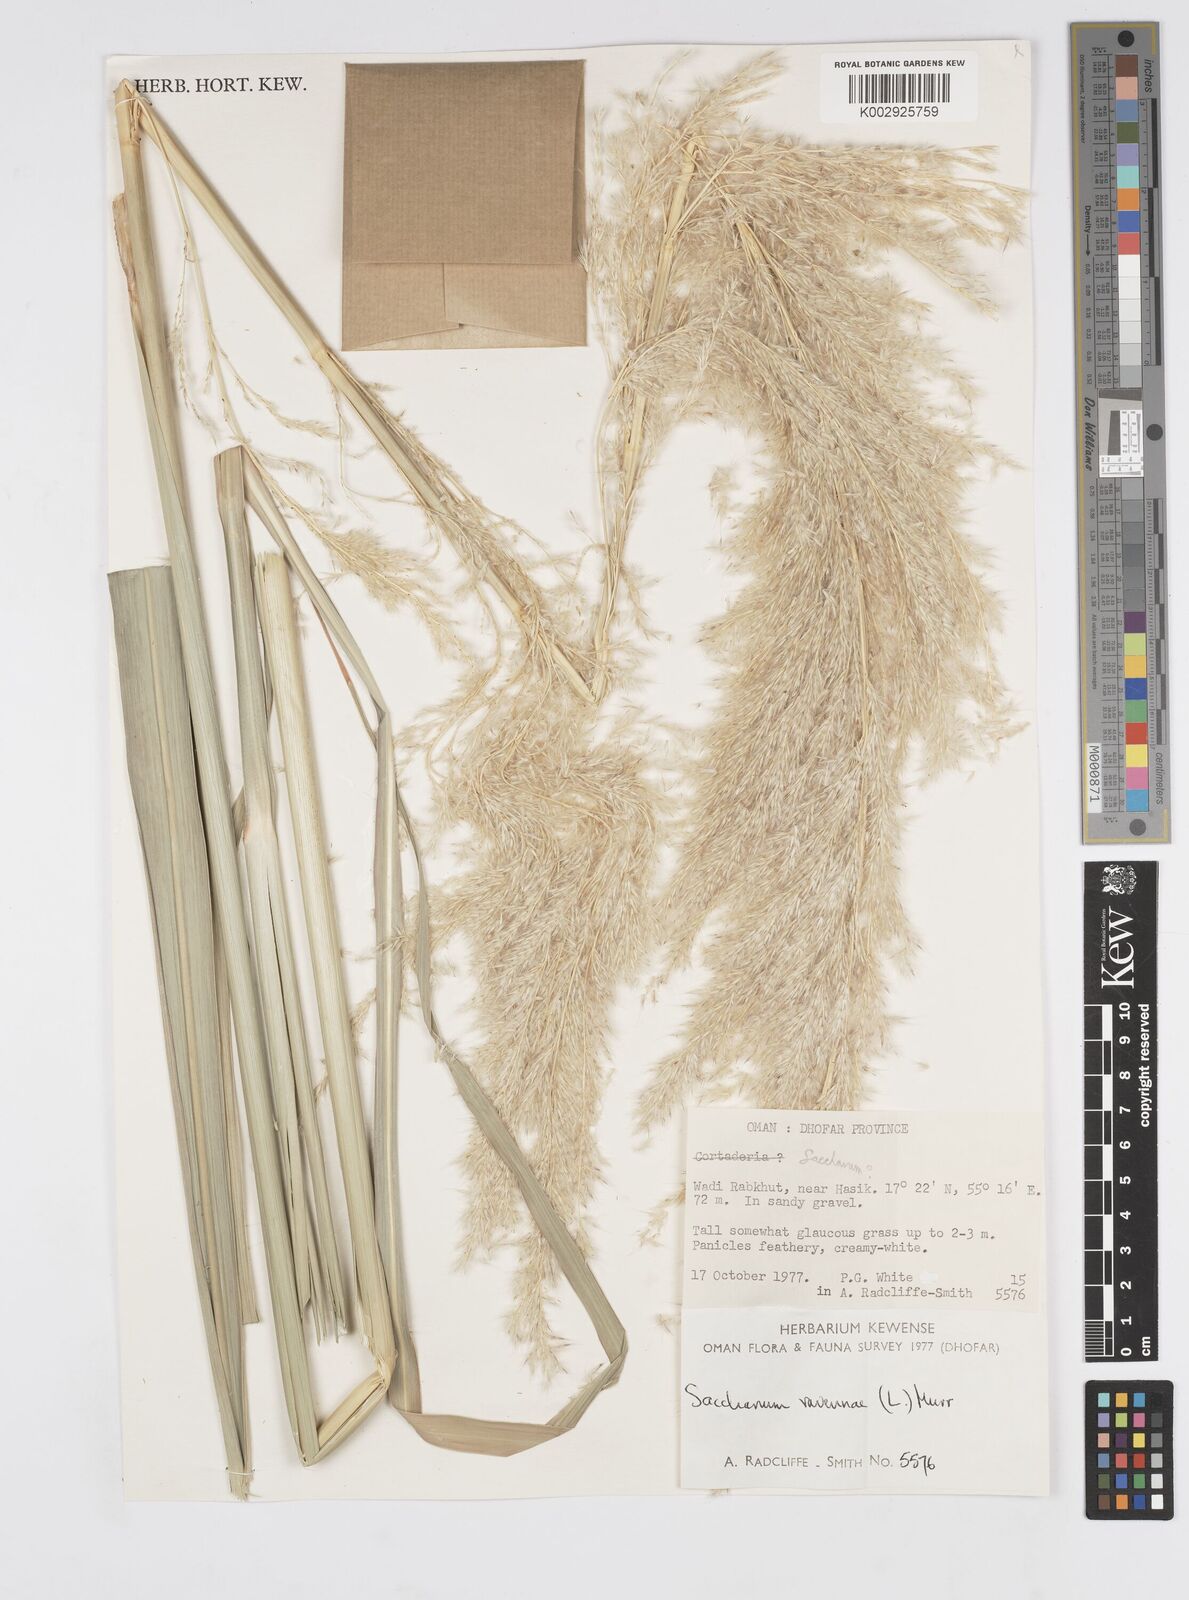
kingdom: Plantae
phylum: Tracheophyta
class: Liliopsida
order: Poales
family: Poaceae
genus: Tripidium
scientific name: Tripidium ravennae
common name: Ravenna grass
